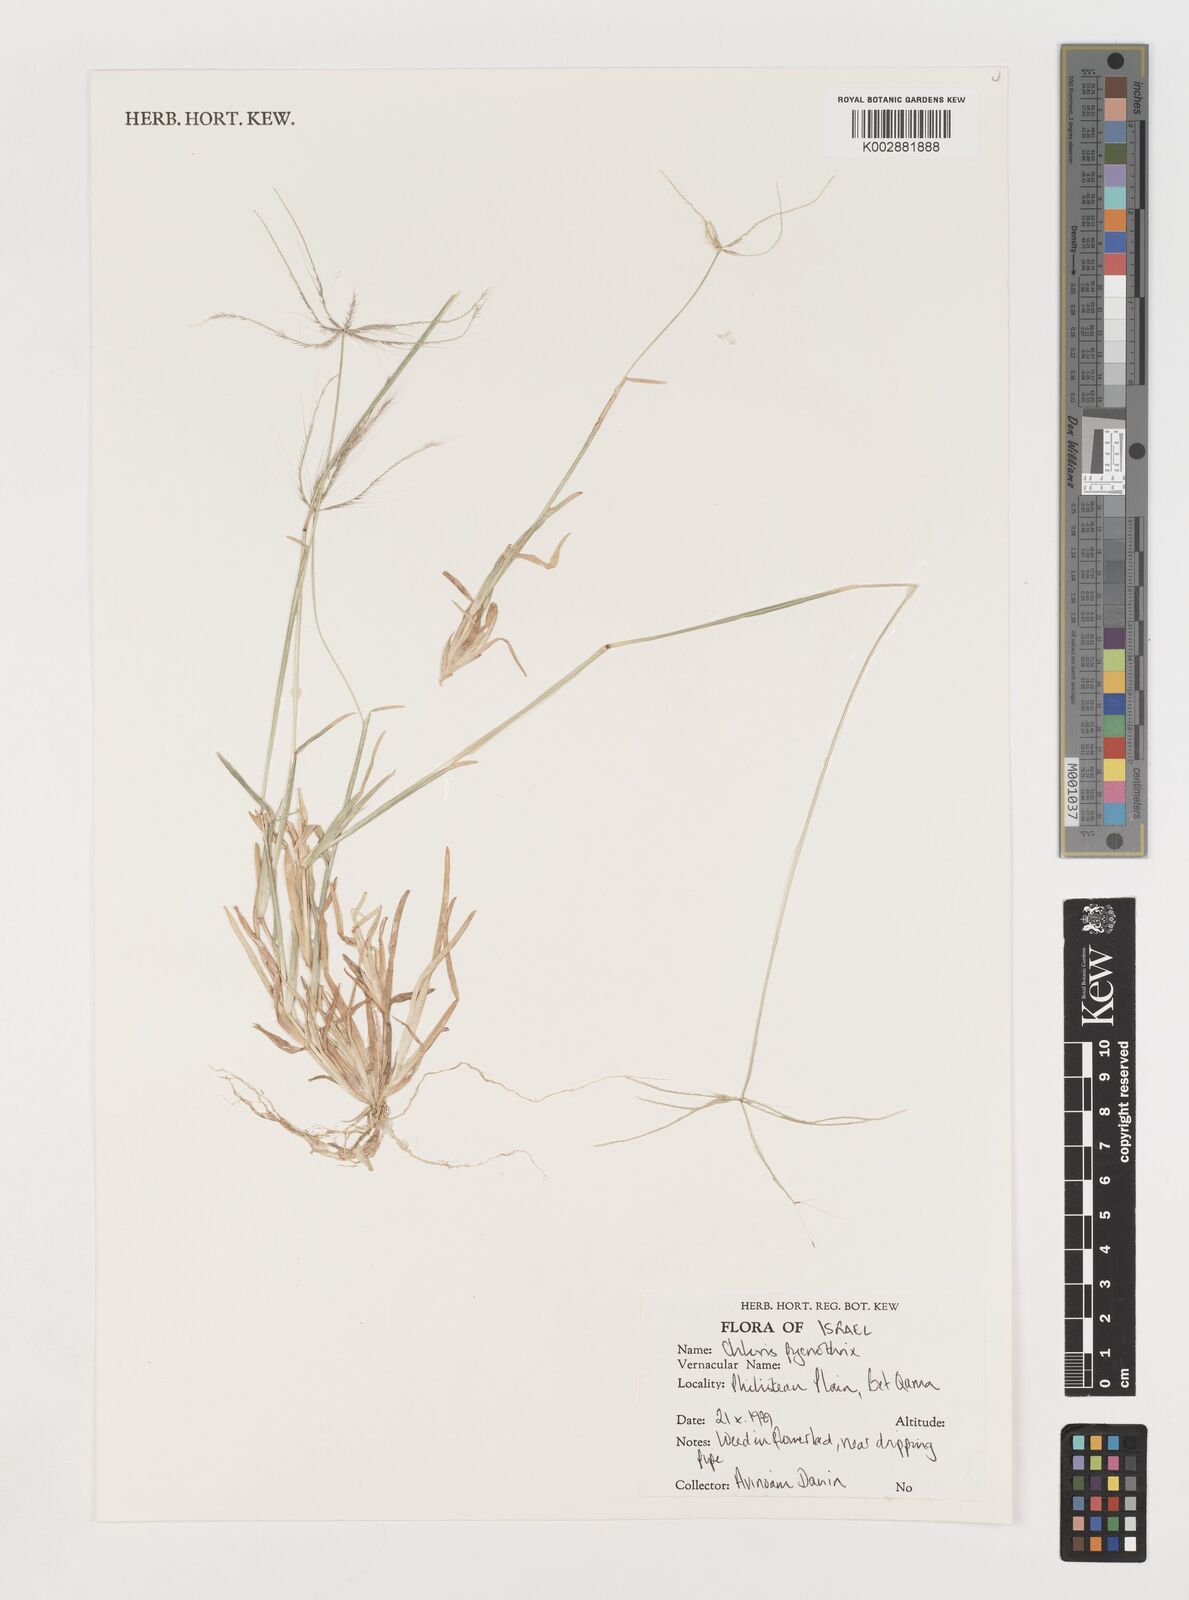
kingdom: Plantae
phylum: Tracheophyta
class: Liliopsida
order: Poales
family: Poaceae
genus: Chloris
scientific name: Chloris pycnothrix
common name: Spiderweb chloris
